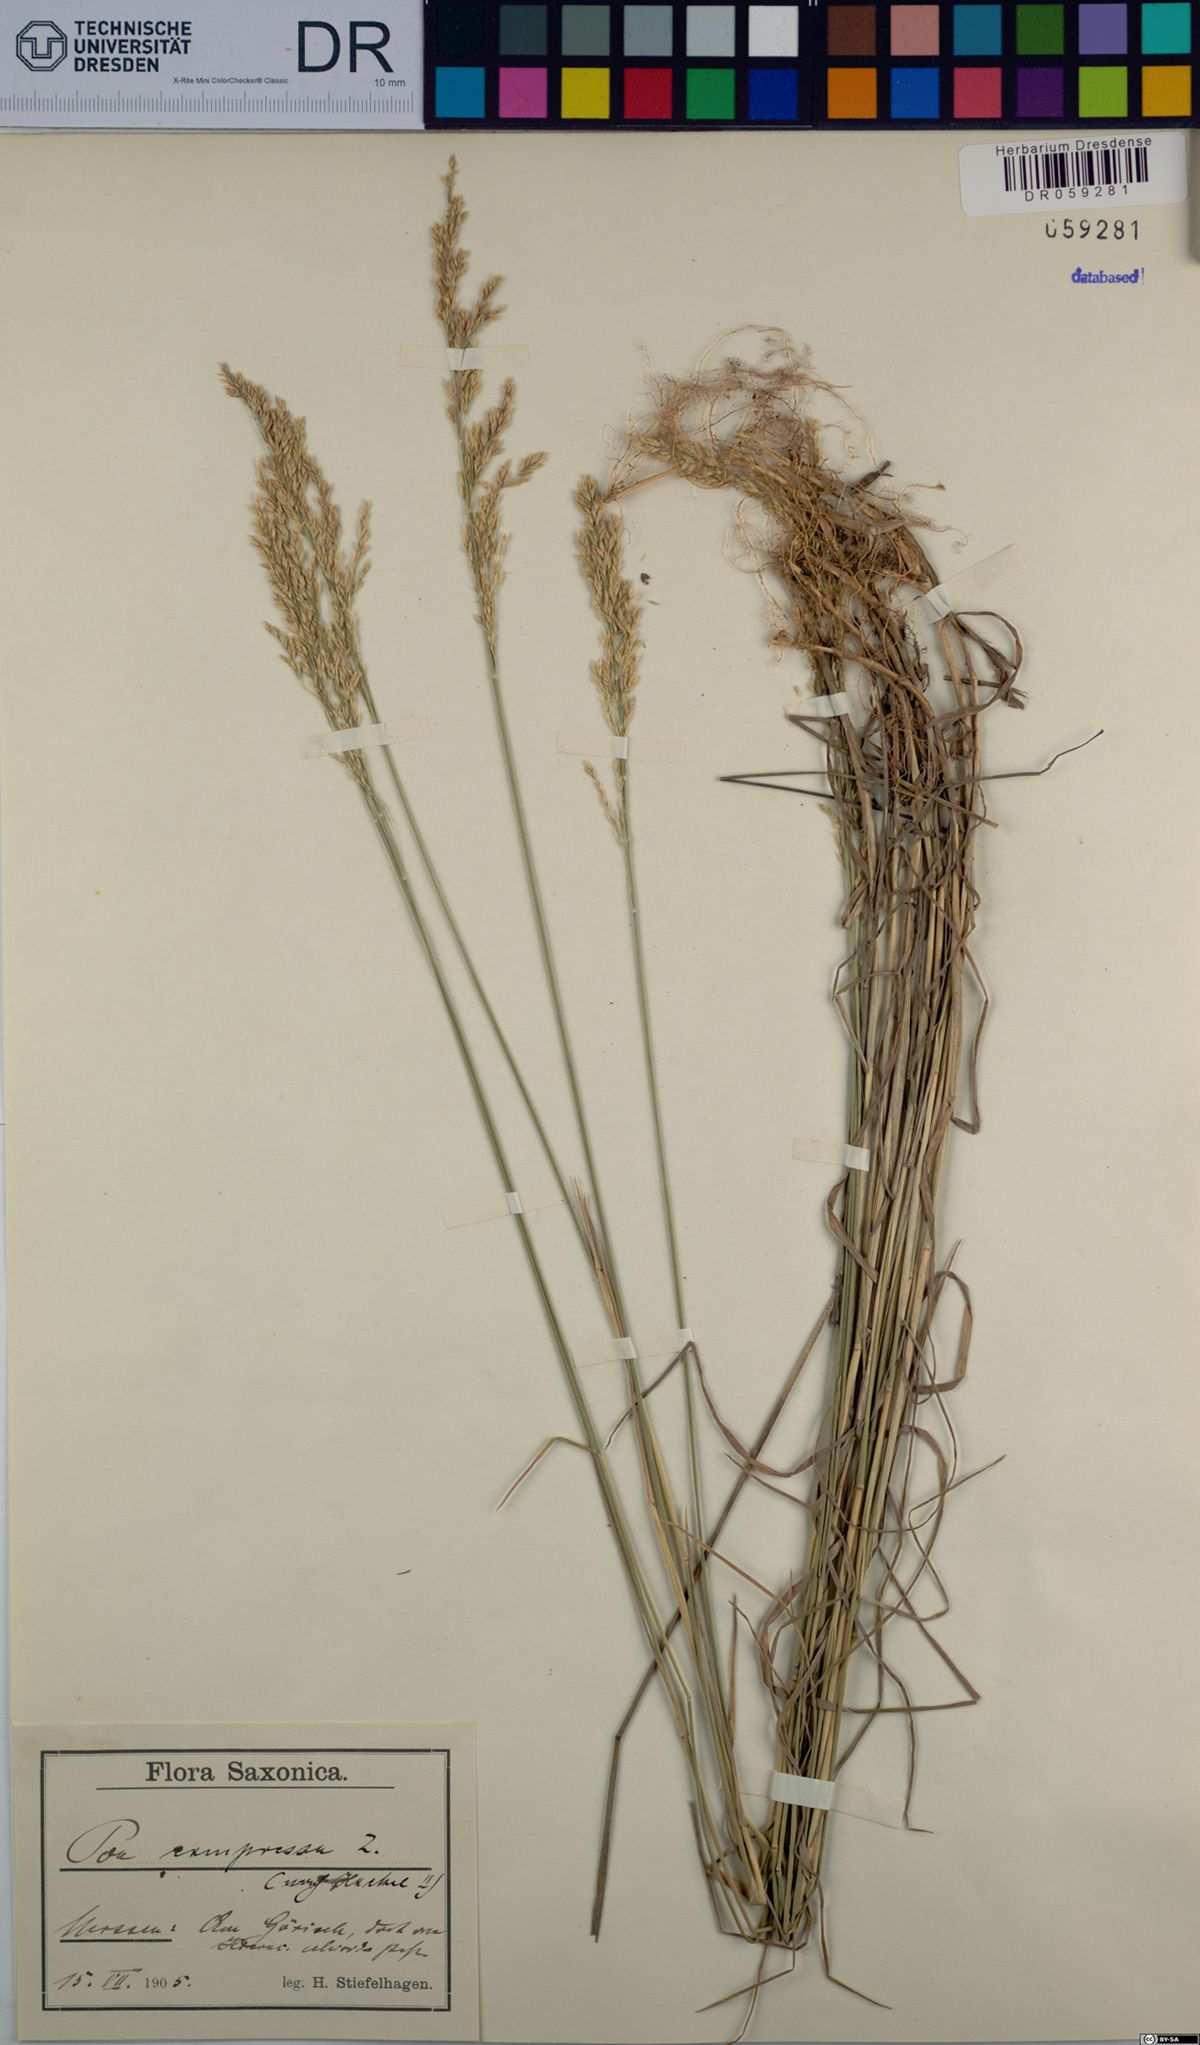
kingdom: Plantae
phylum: Tracheophyta
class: Liliopsida
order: Poales
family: Poaceae
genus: Poa
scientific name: Poa compressa
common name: Canada bluegrass
